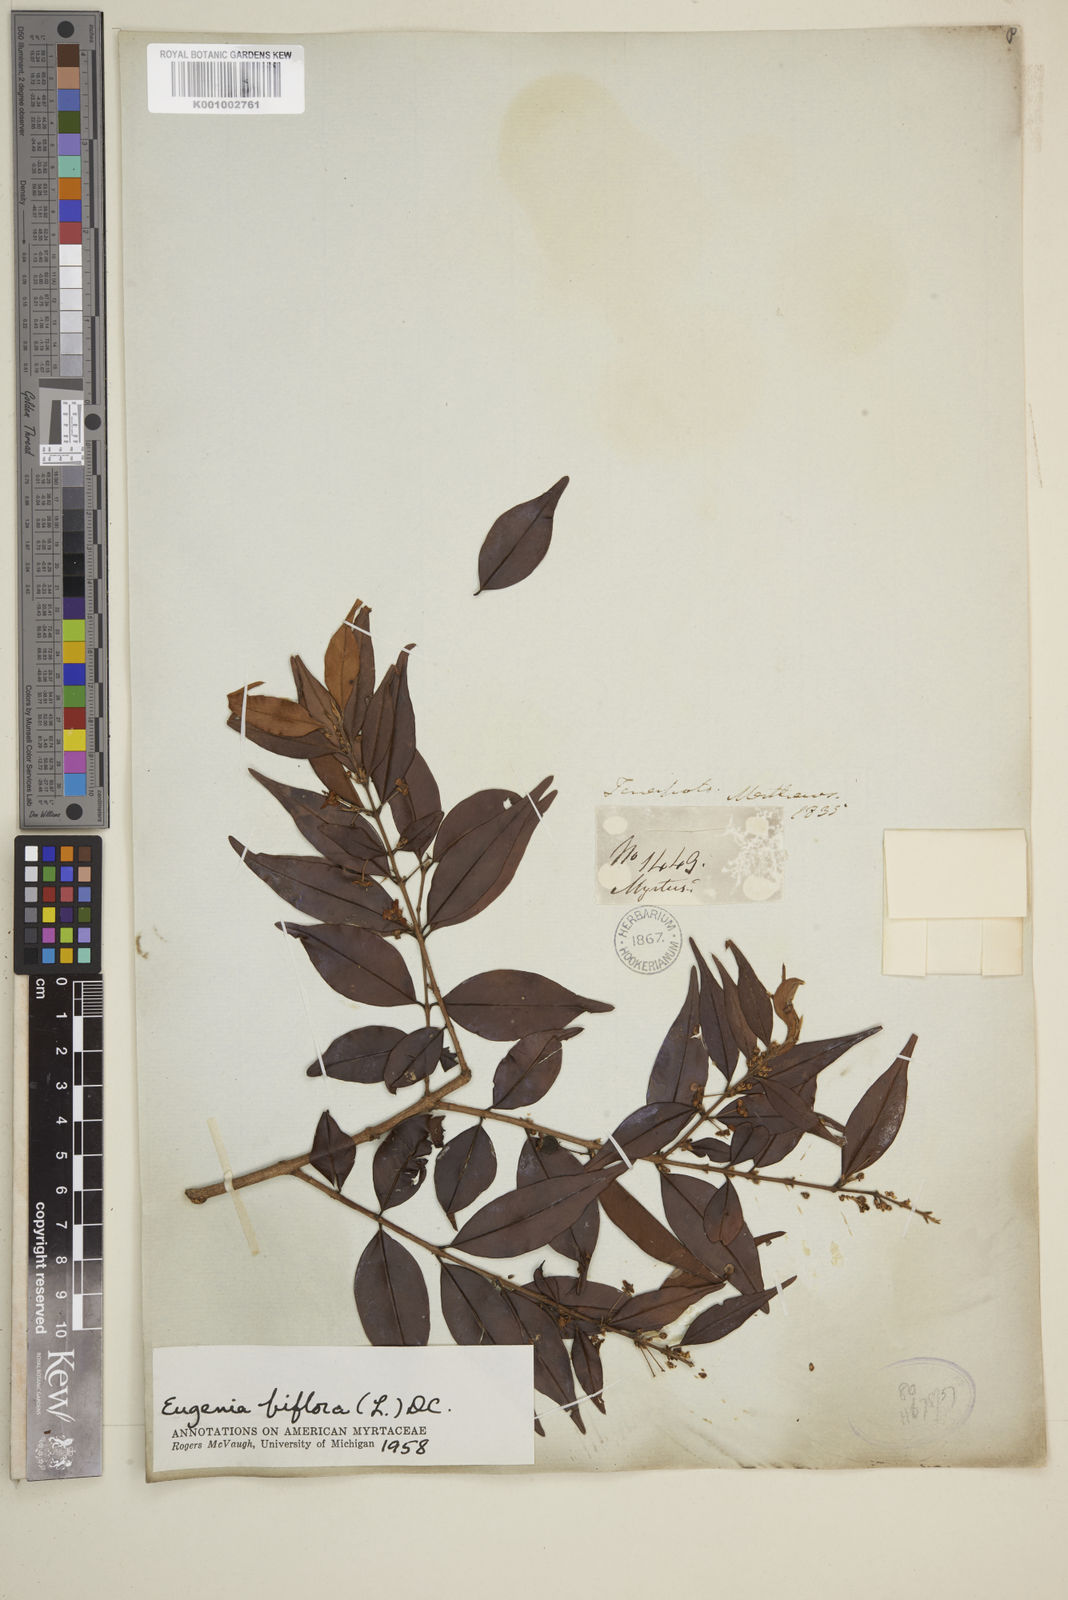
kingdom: Plantae
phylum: Tracheophyta
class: Magnoliopsida
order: Myrtales
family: Myrtaceae
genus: Eugenia
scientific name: Eugenia biflora
